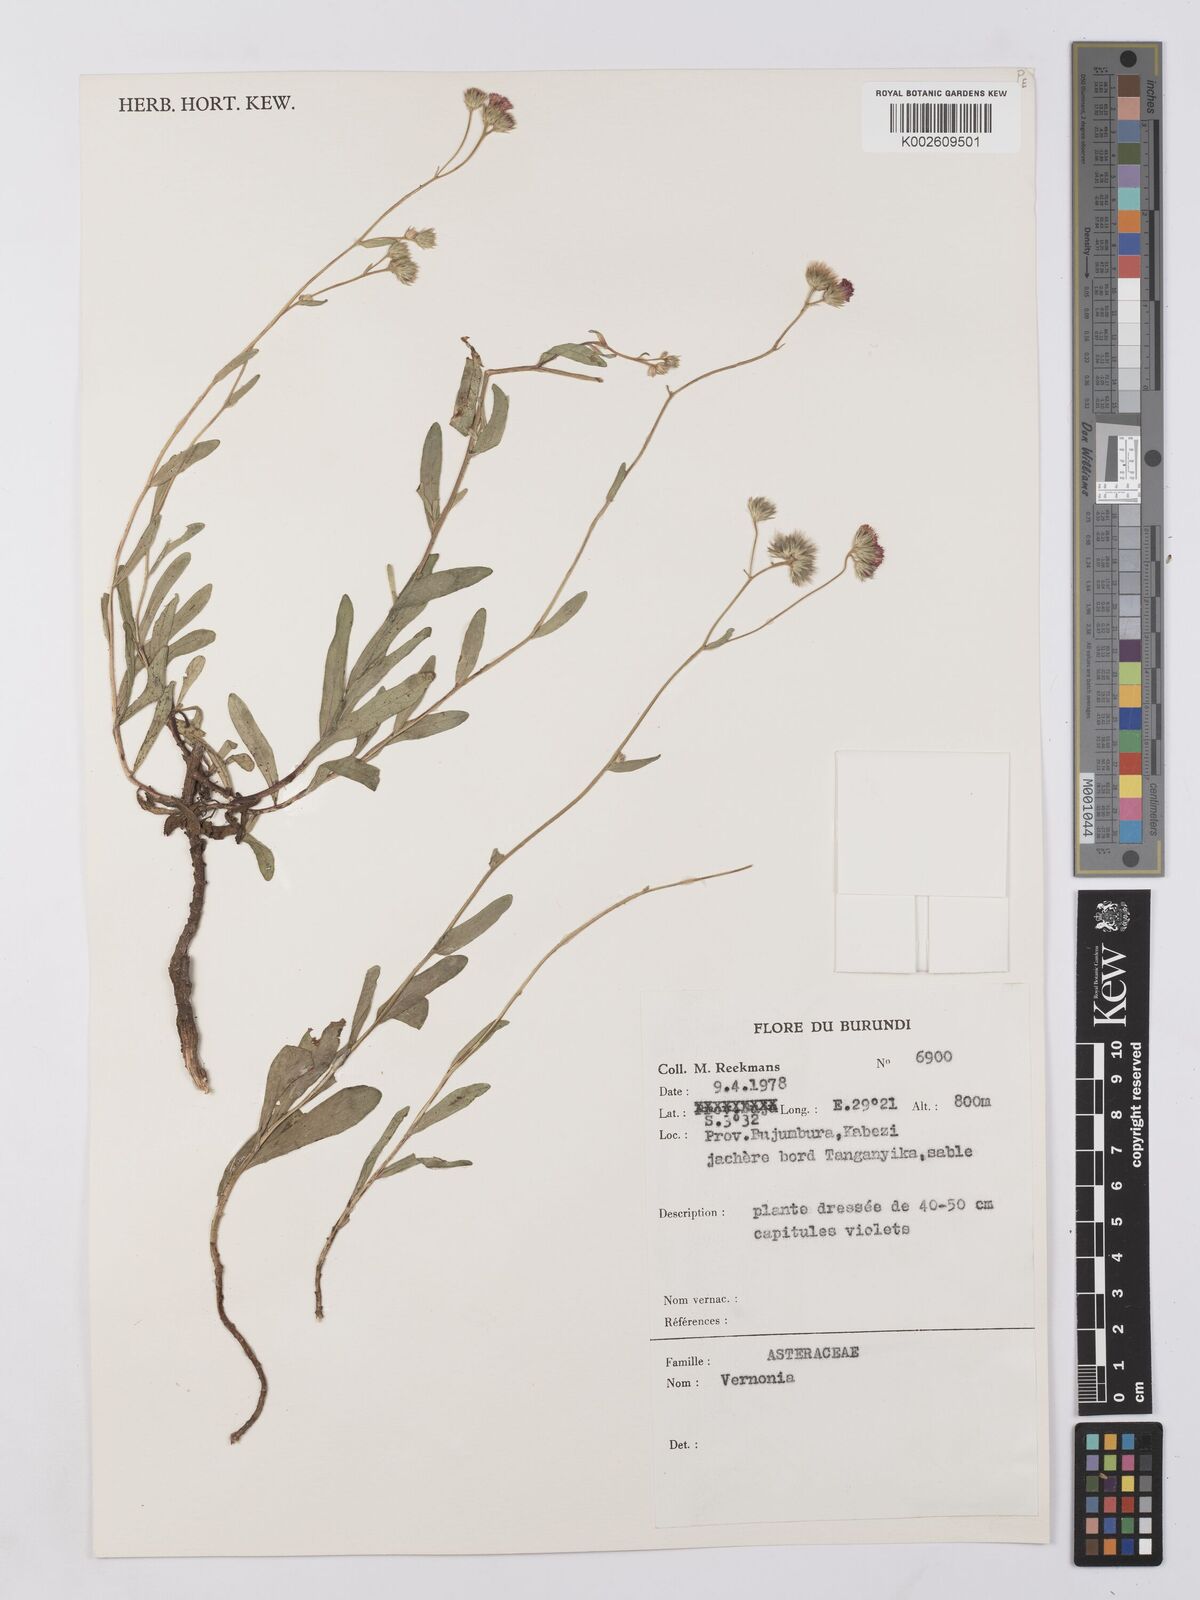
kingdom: Plantae
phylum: Tracheophyta
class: Magnoliopsida
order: Asterales
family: Asteraceae
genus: Vernonia
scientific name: Vernonia
